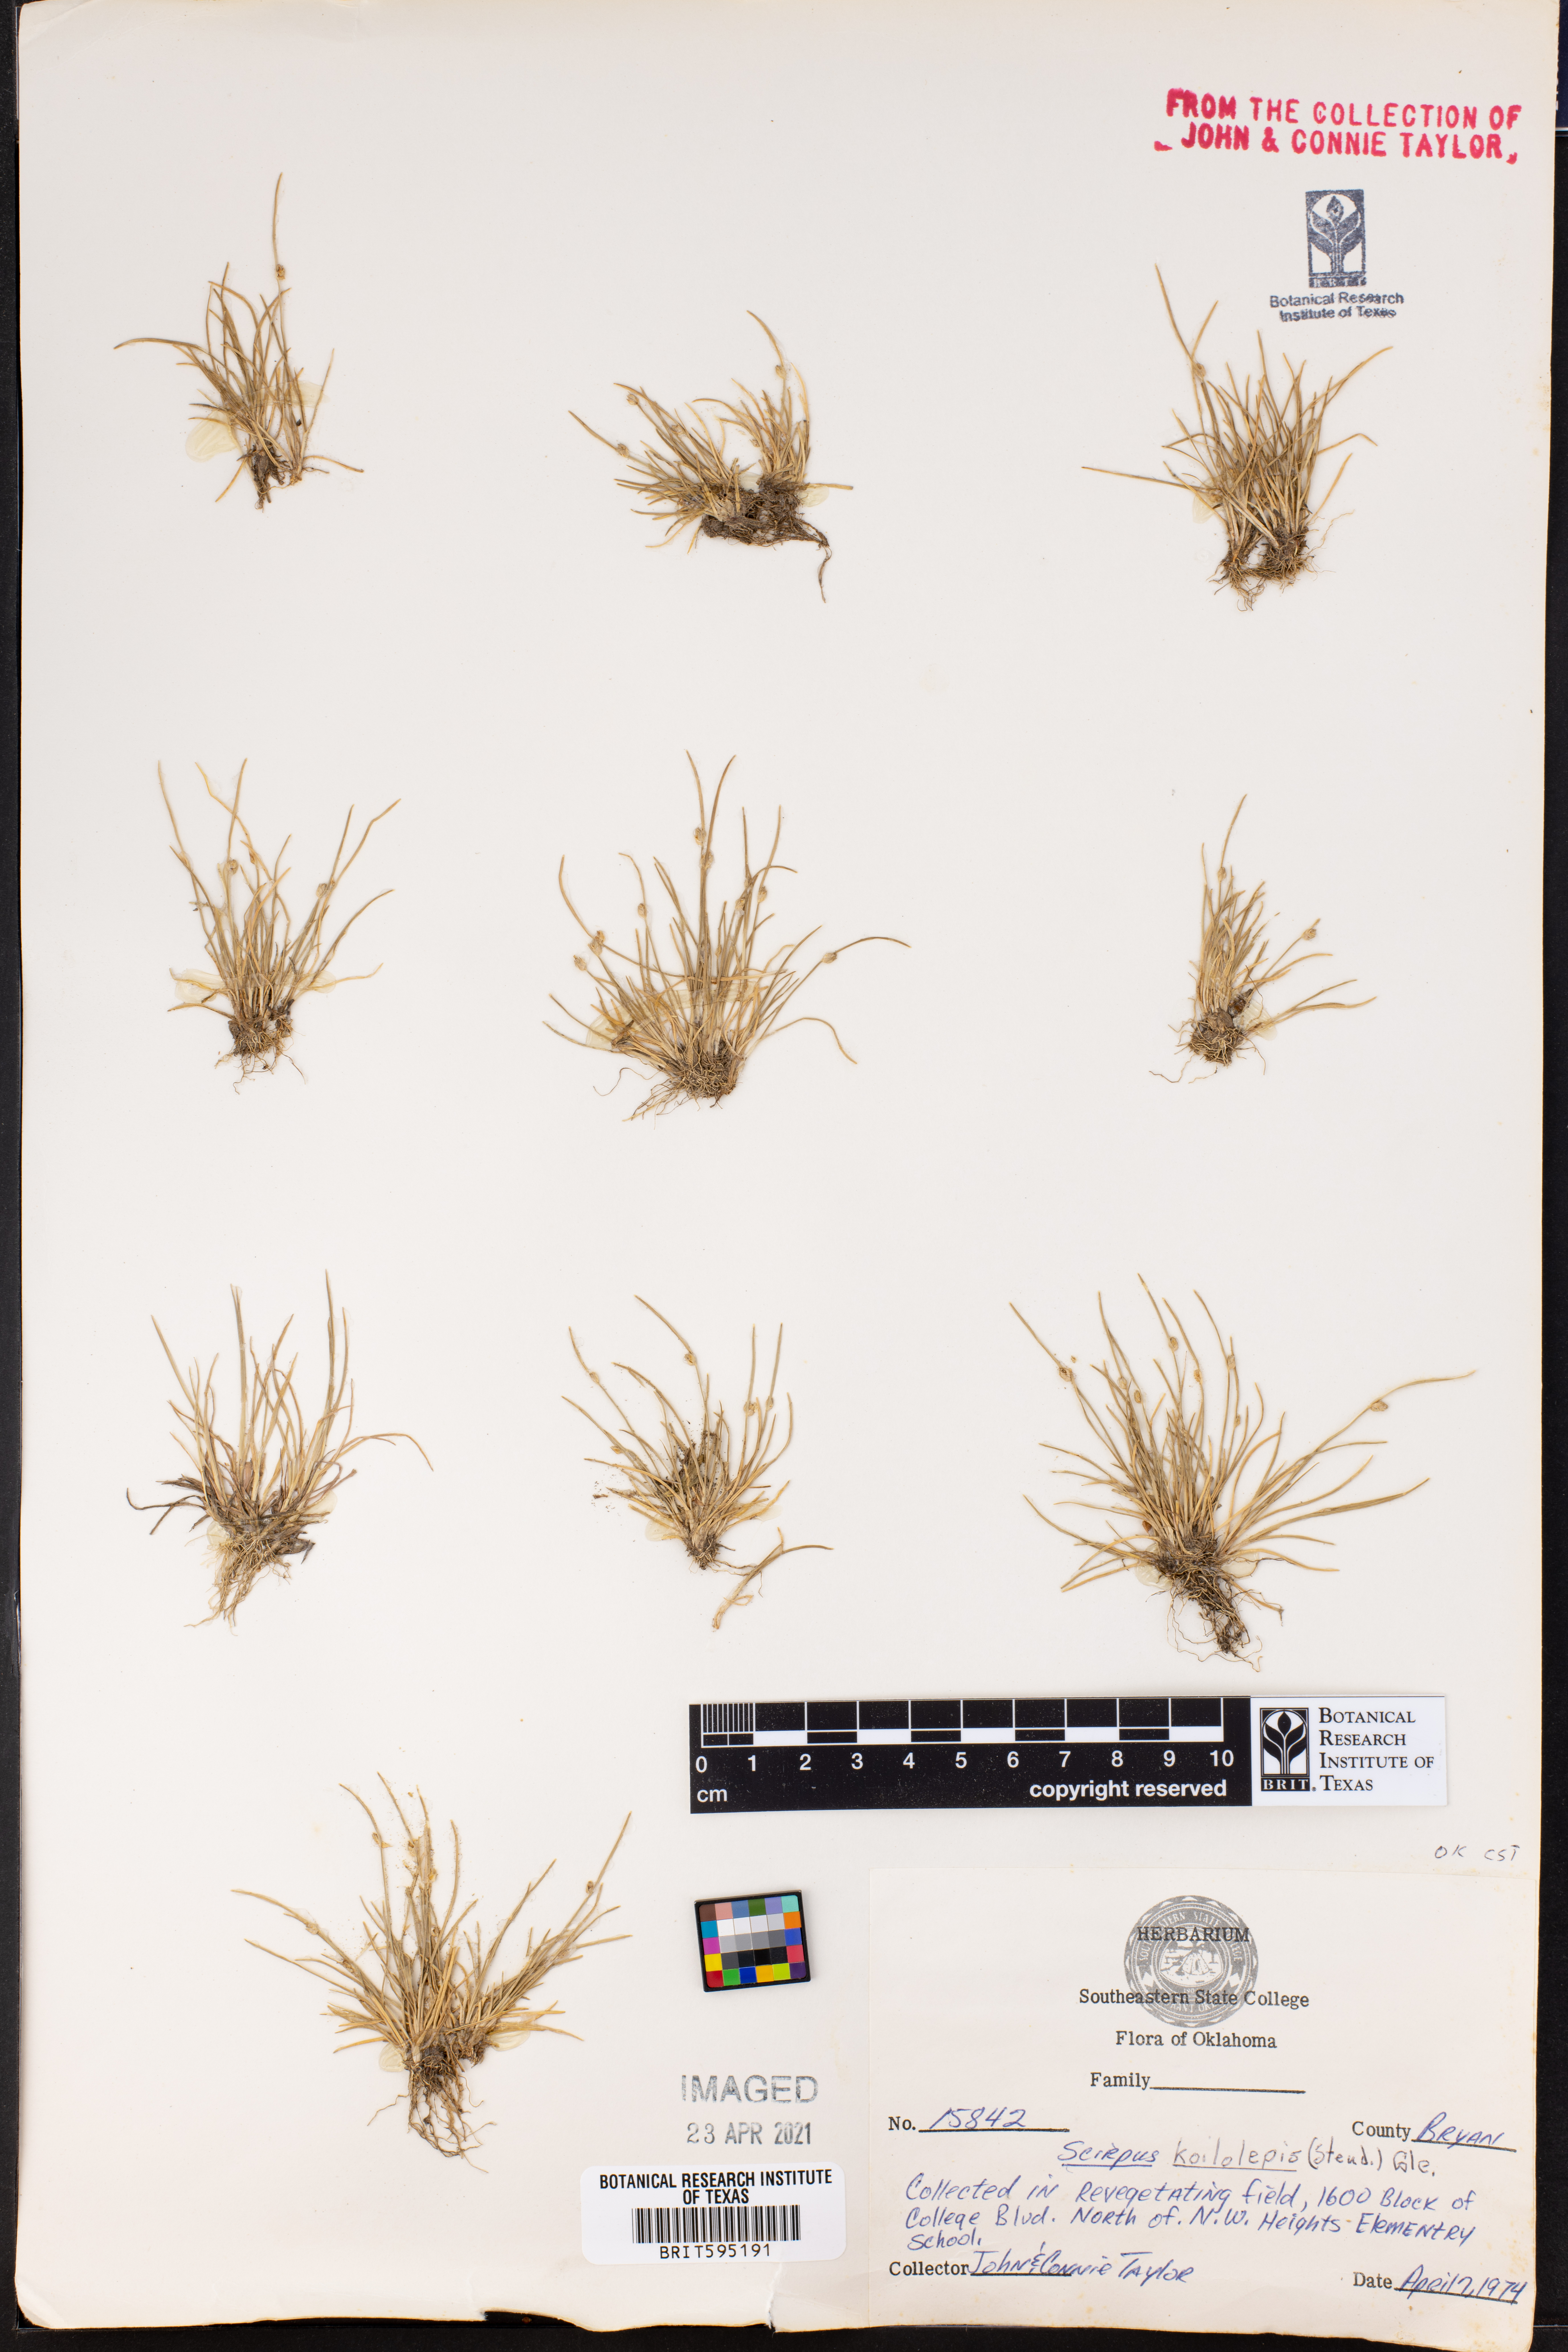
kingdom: Plantae
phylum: Tracheophyta
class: Liliopsida
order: Poales
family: Cyperaceae
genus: Isolepis
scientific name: Isolepis carinata
